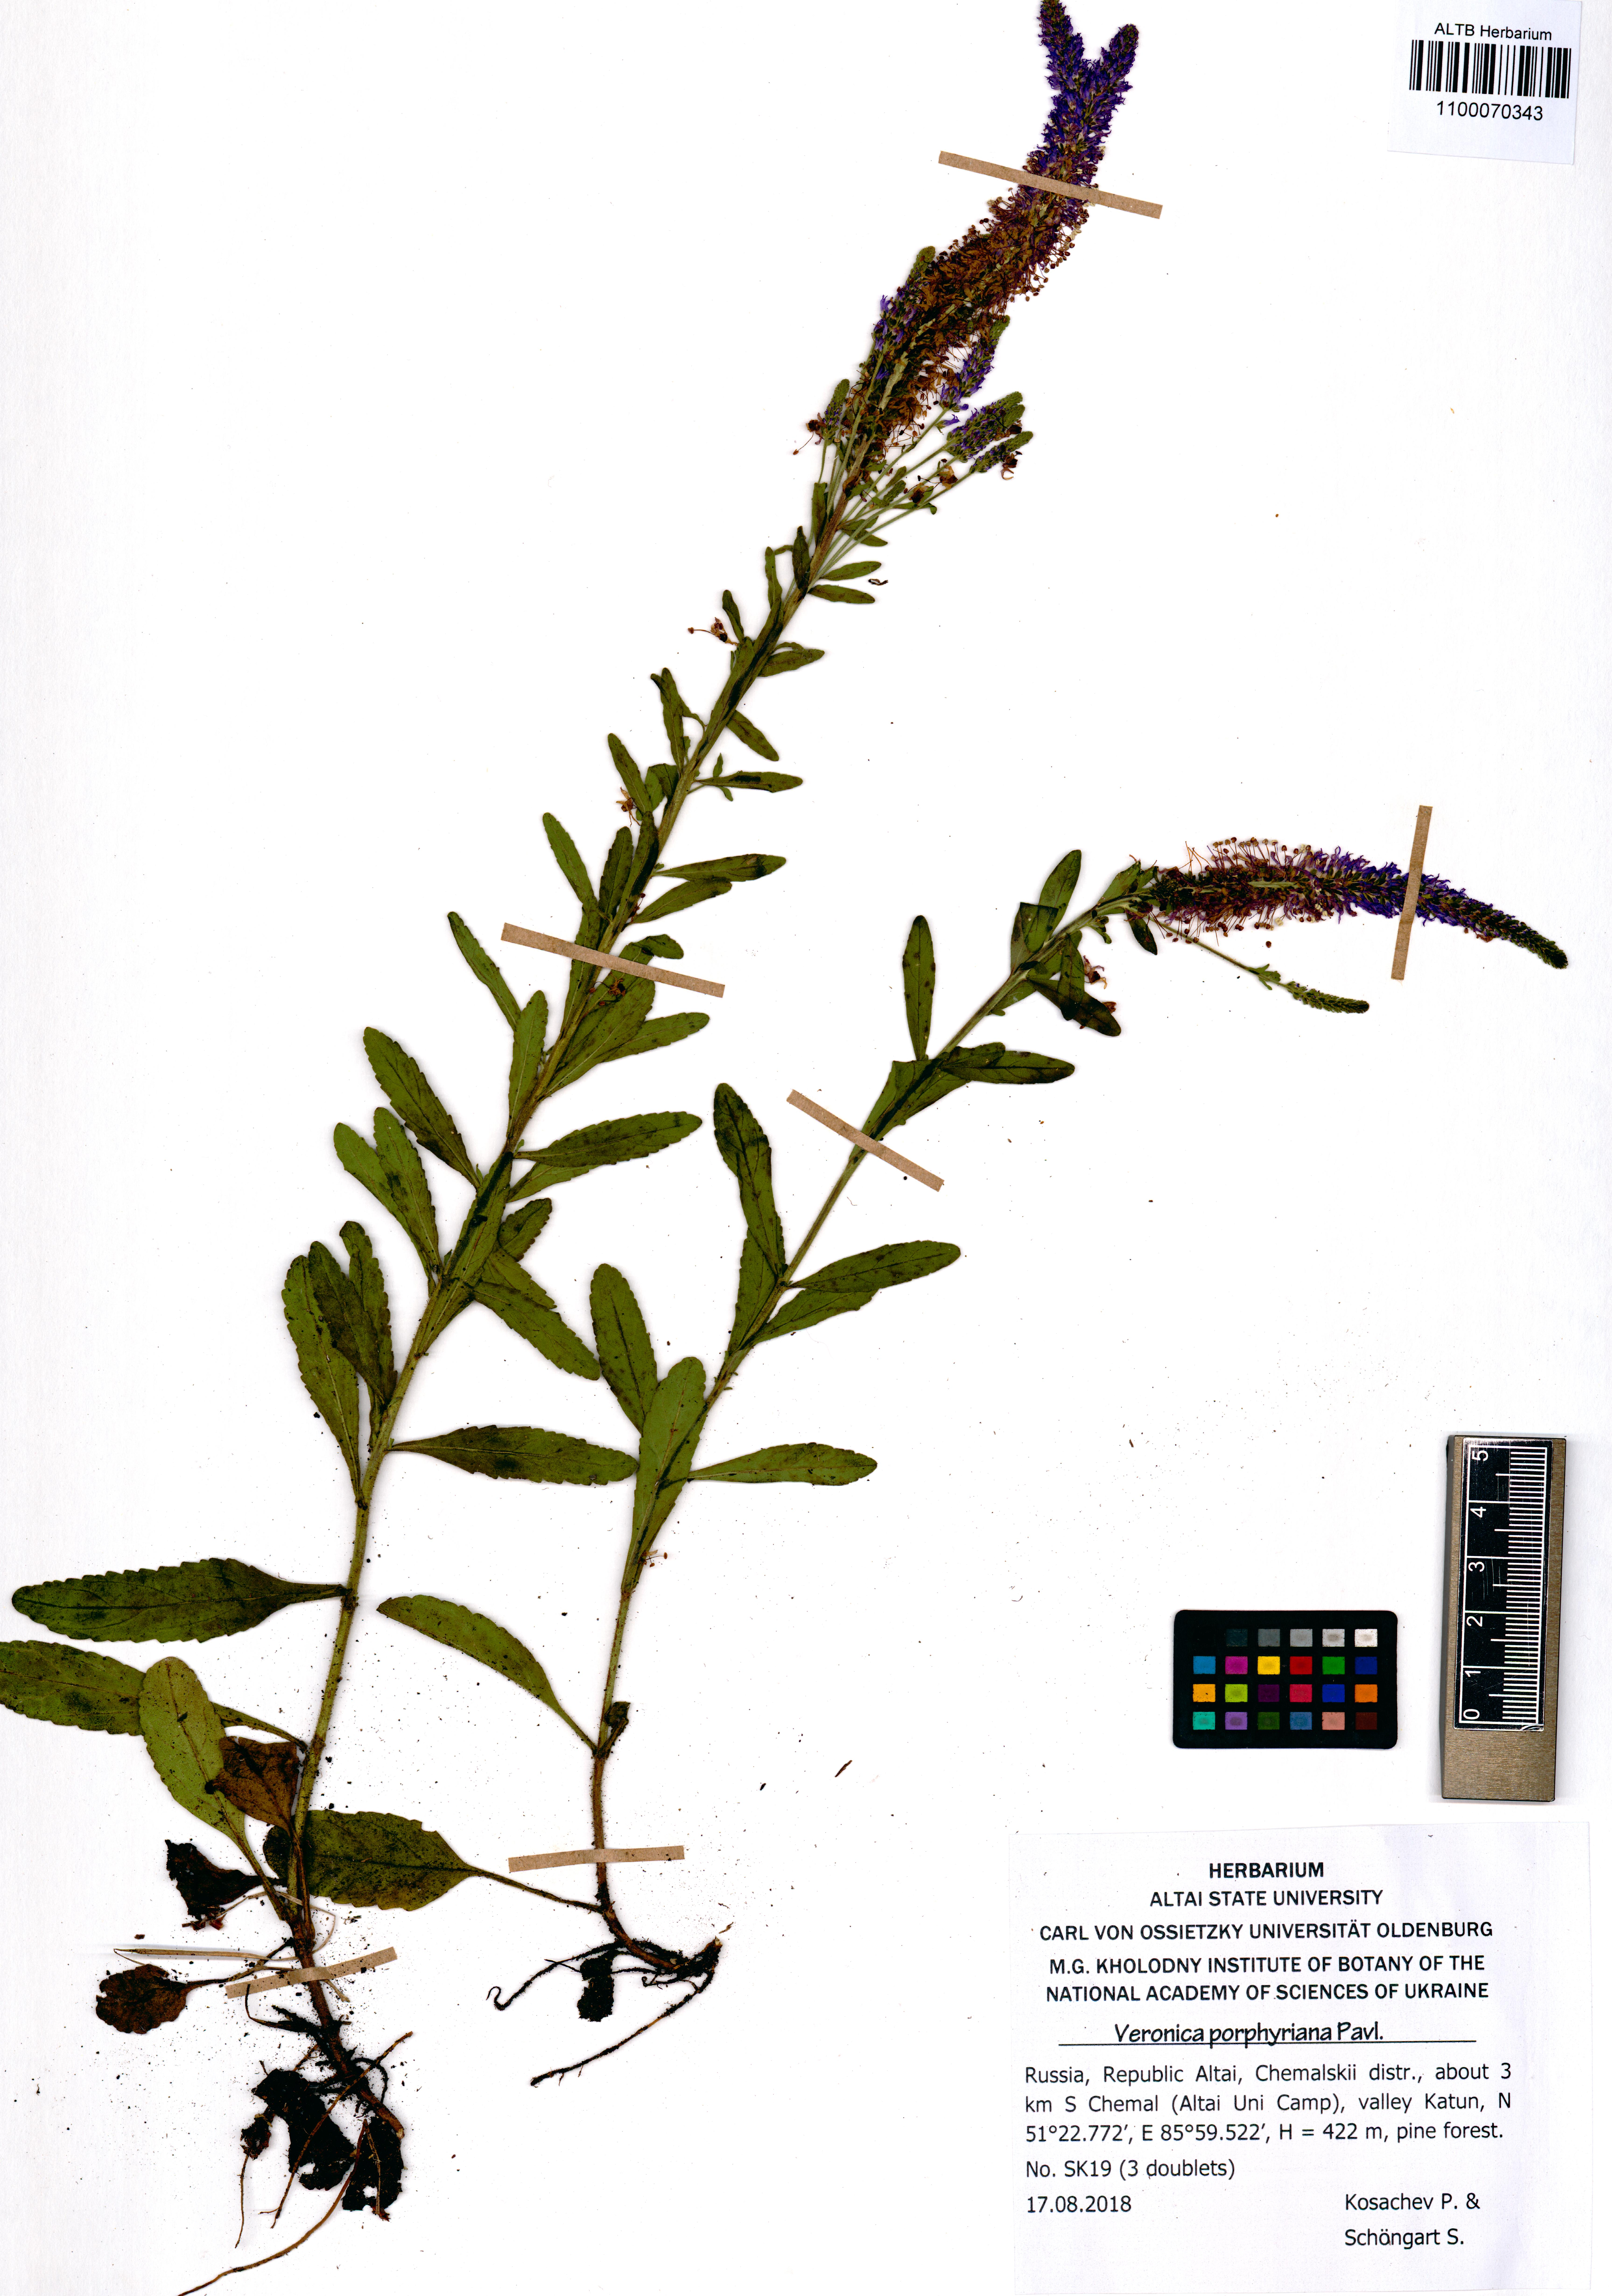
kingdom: Plantae
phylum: Tracheophyta
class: Magnoliopsida
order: Lamiales
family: Plantaginaceae
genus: Veronica
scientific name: Veronica porphyriana
